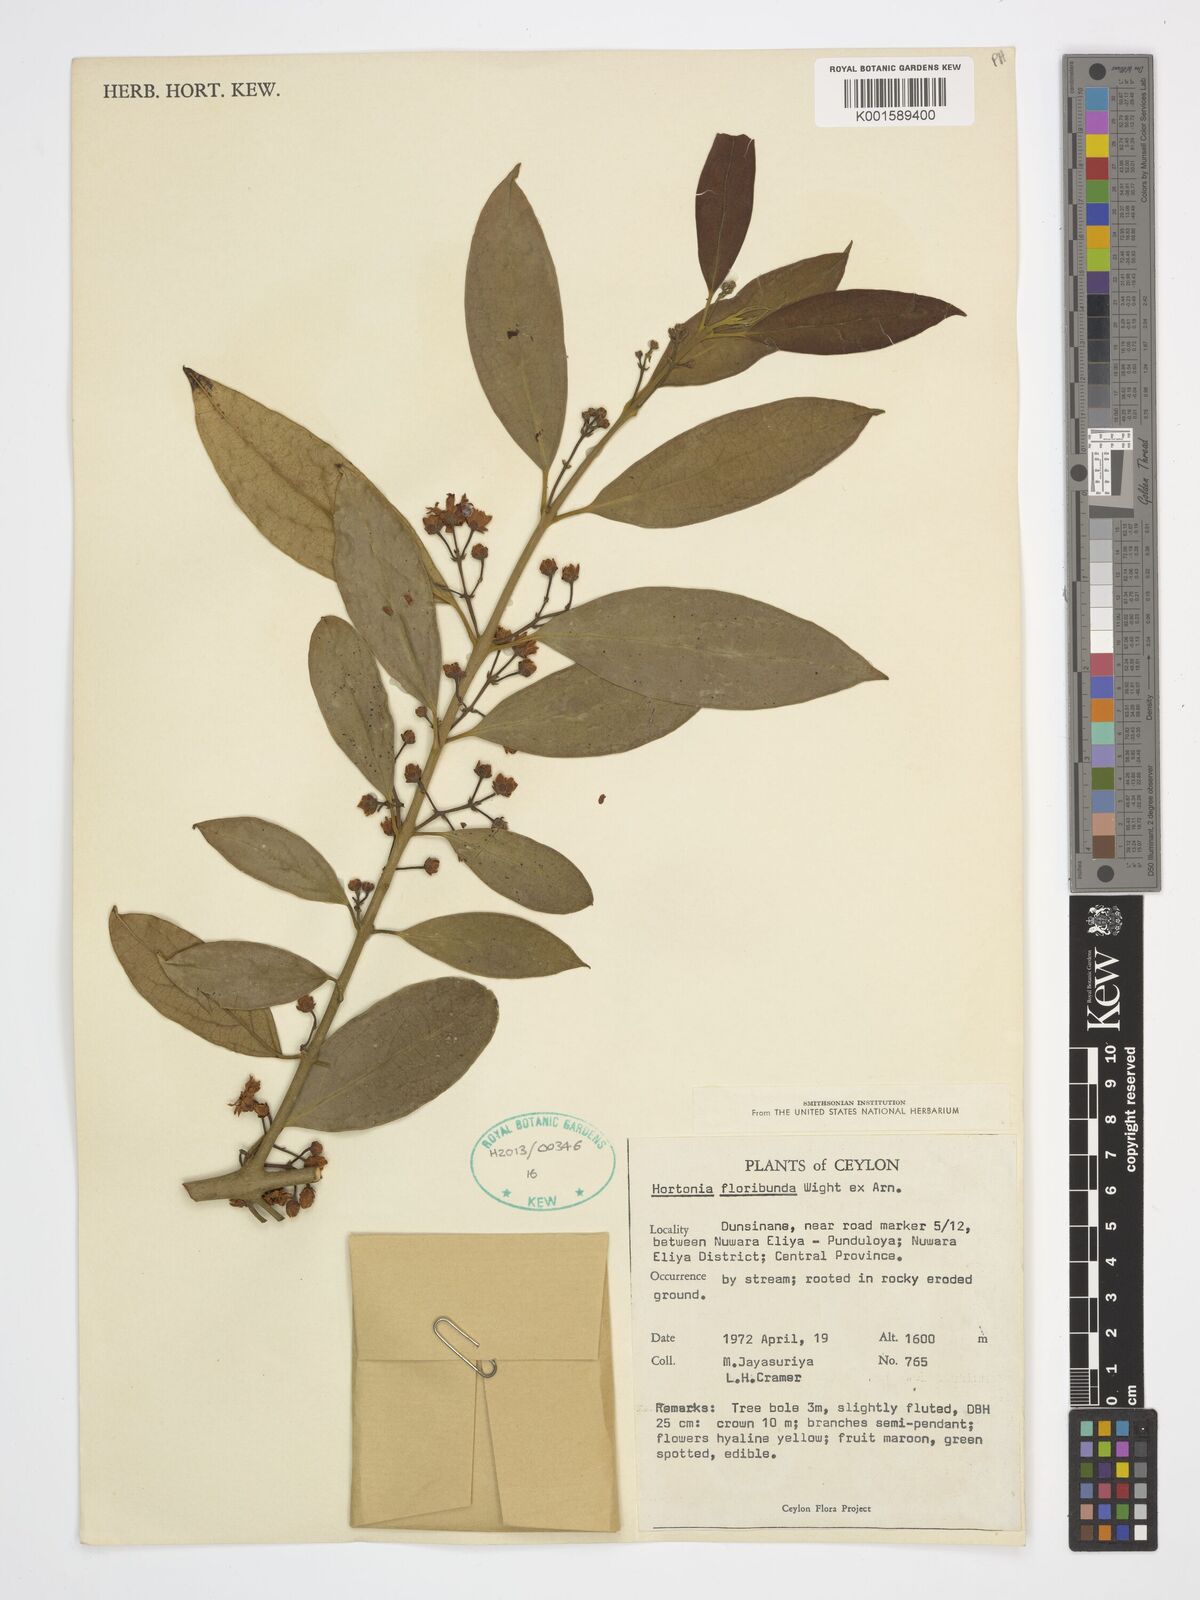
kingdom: Plantae
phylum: Tracheophyta
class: Magnoliopsida
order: Laurales
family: Monimiaceae
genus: Hortonia
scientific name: Hortonia floribunda
